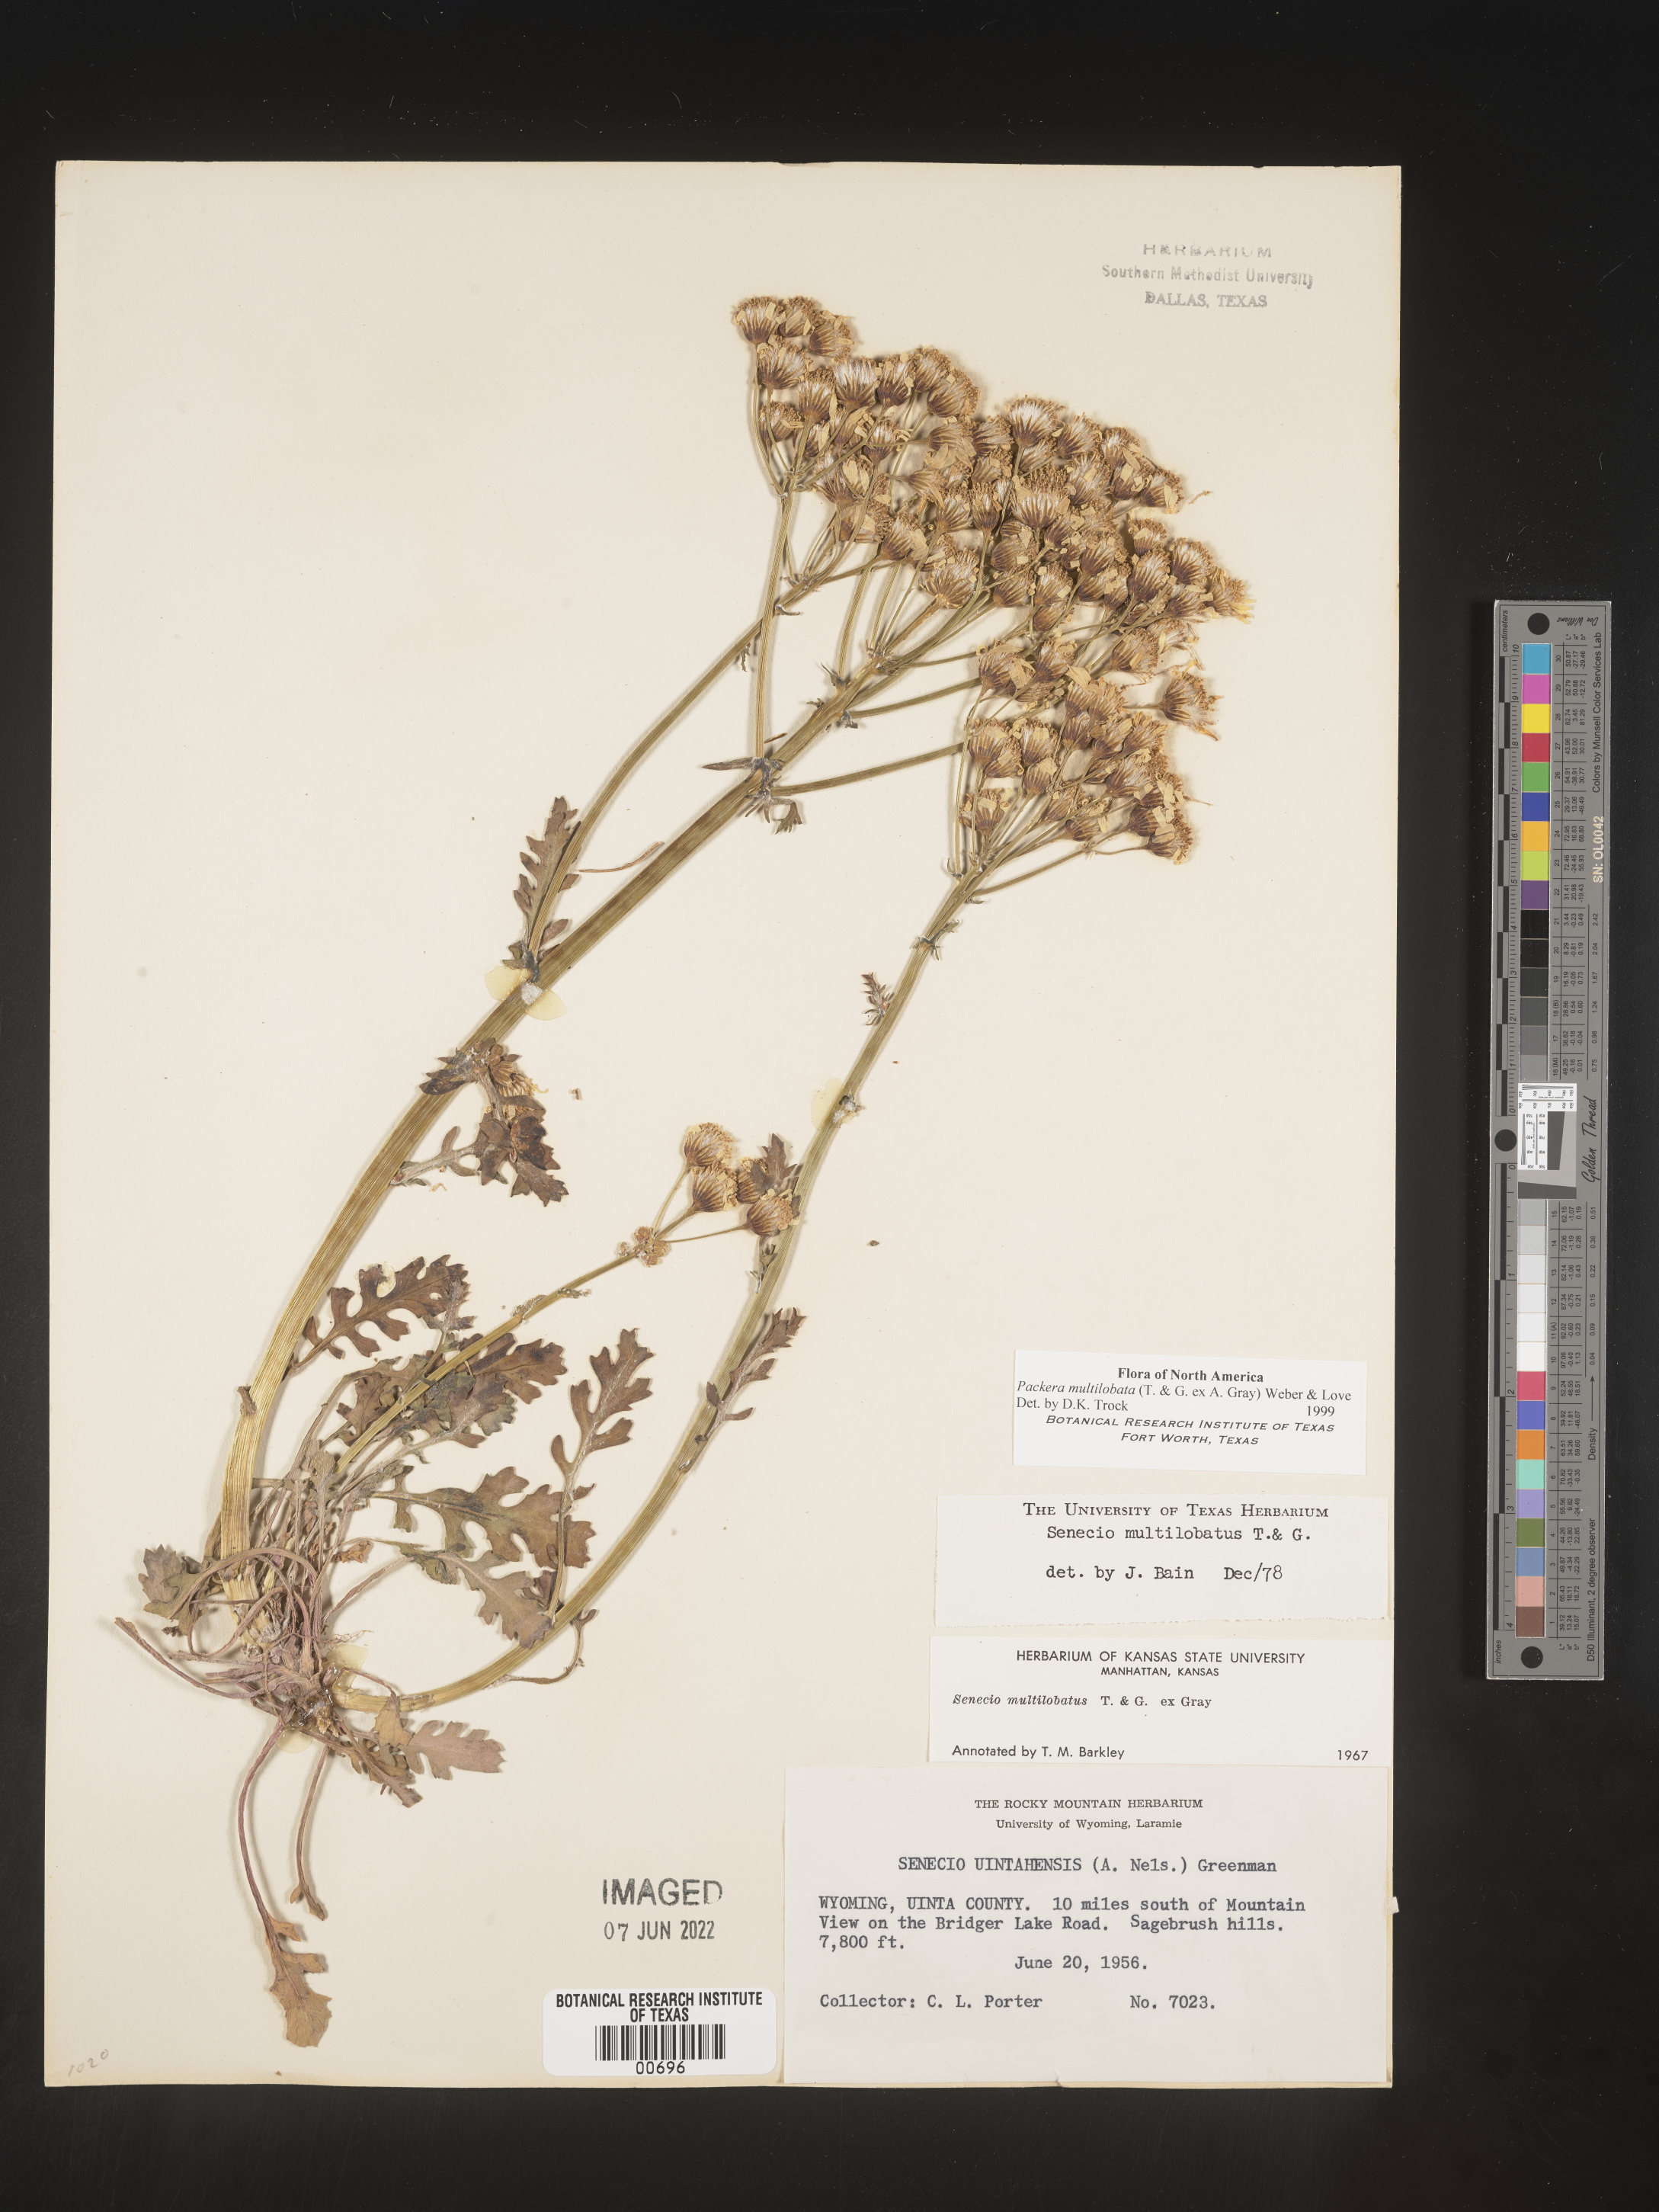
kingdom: Plantae
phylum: Tracheophyta
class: Magnoliopsida
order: Asterales
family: Asteraceae
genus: Packera
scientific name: Packera multilobata
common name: Lobe-leaf groundsel
